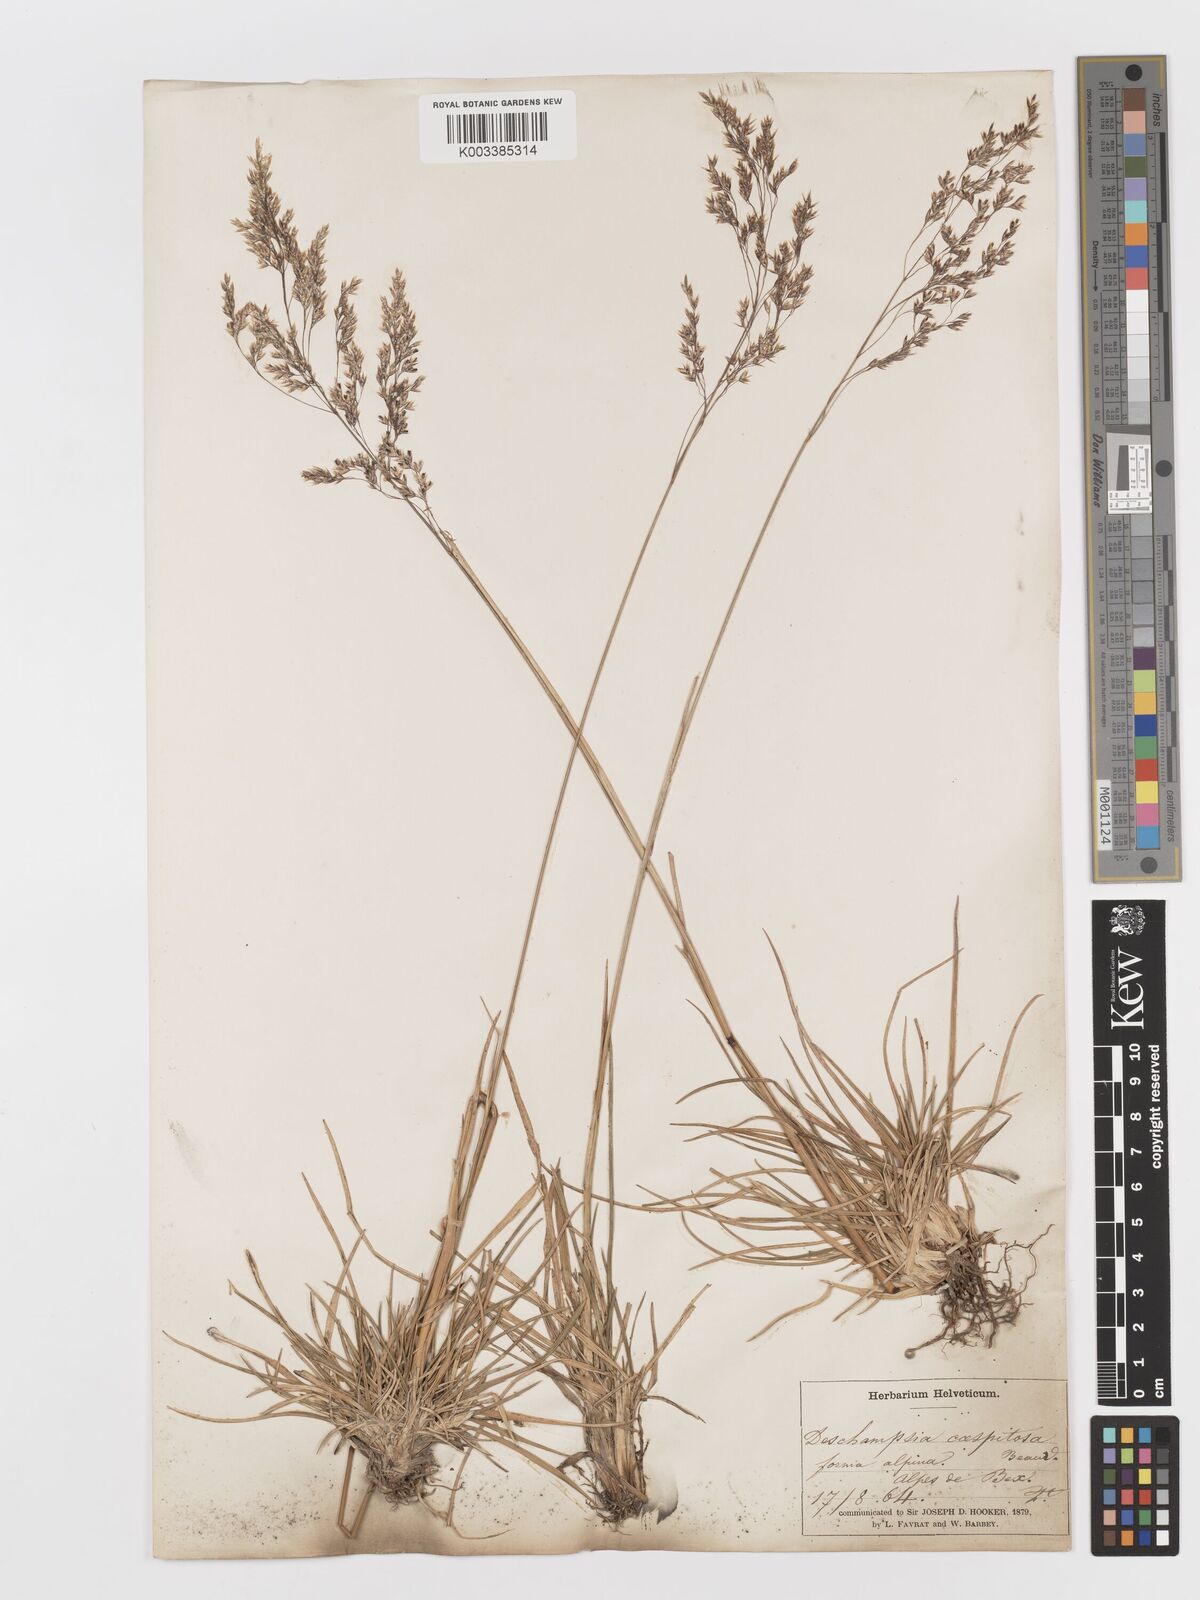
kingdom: Plantae
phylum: Tracheophyta
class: Liliopsida
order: Poales
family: Poaceae
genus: Deschampsia
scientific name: Deschampsia cespitosa
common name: Tufted hair-grass
